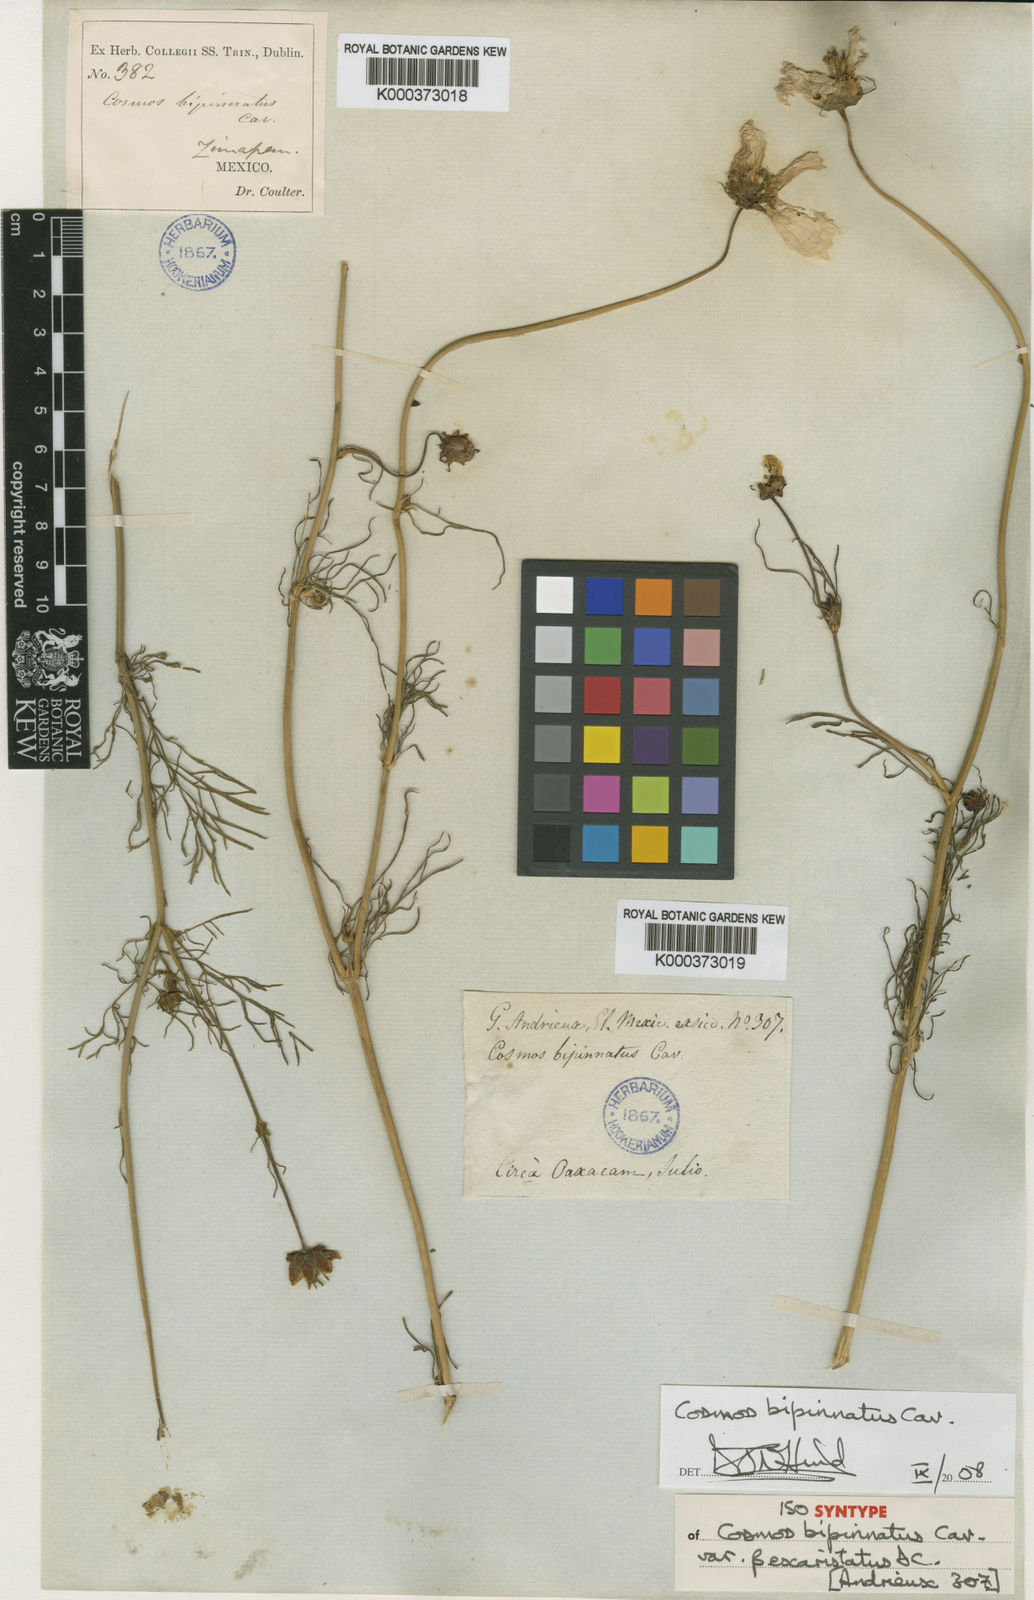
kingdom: Plantae
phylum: Tracheophyta
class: Magnoliopsida
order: Asterales
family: Asteraceae
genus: Cosmos
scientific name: Cosmos bipinnatus
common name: Garden cosmos
